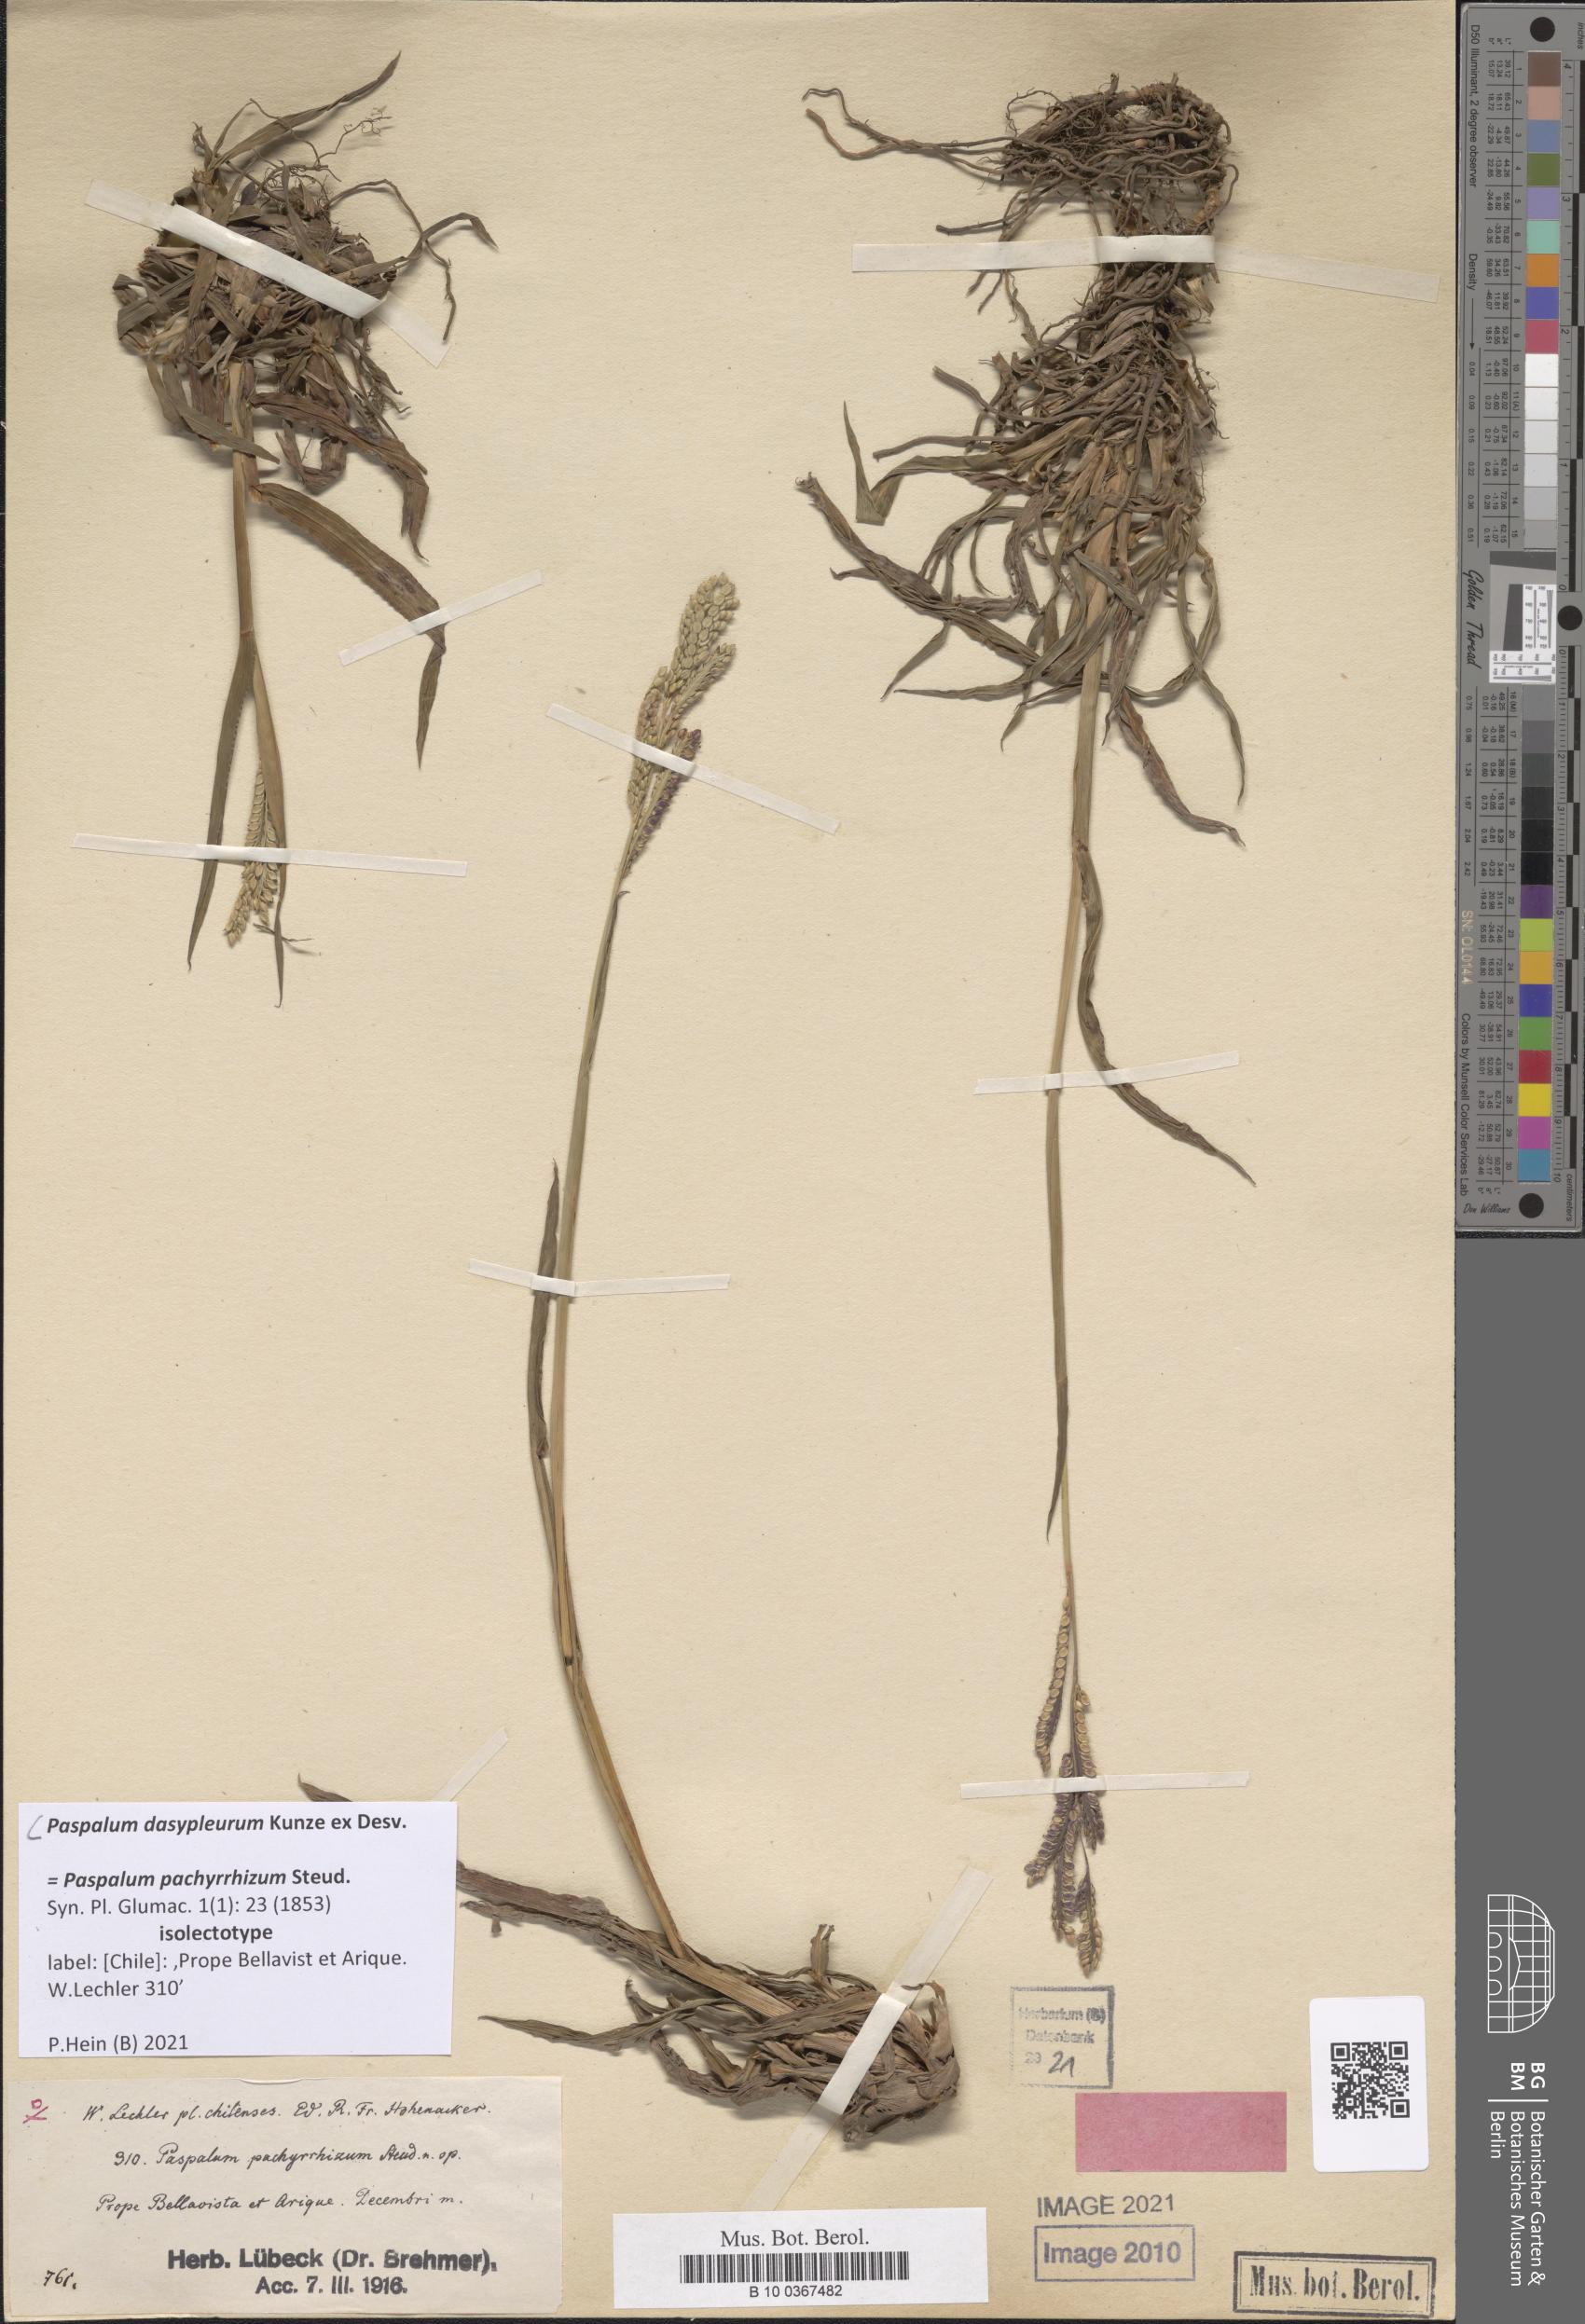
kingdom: Plantae
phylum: Tracheophyta
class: Liliopsida
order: Poales
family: Poaceae
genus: Paspalum
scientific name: Paspalum dasypleurum
